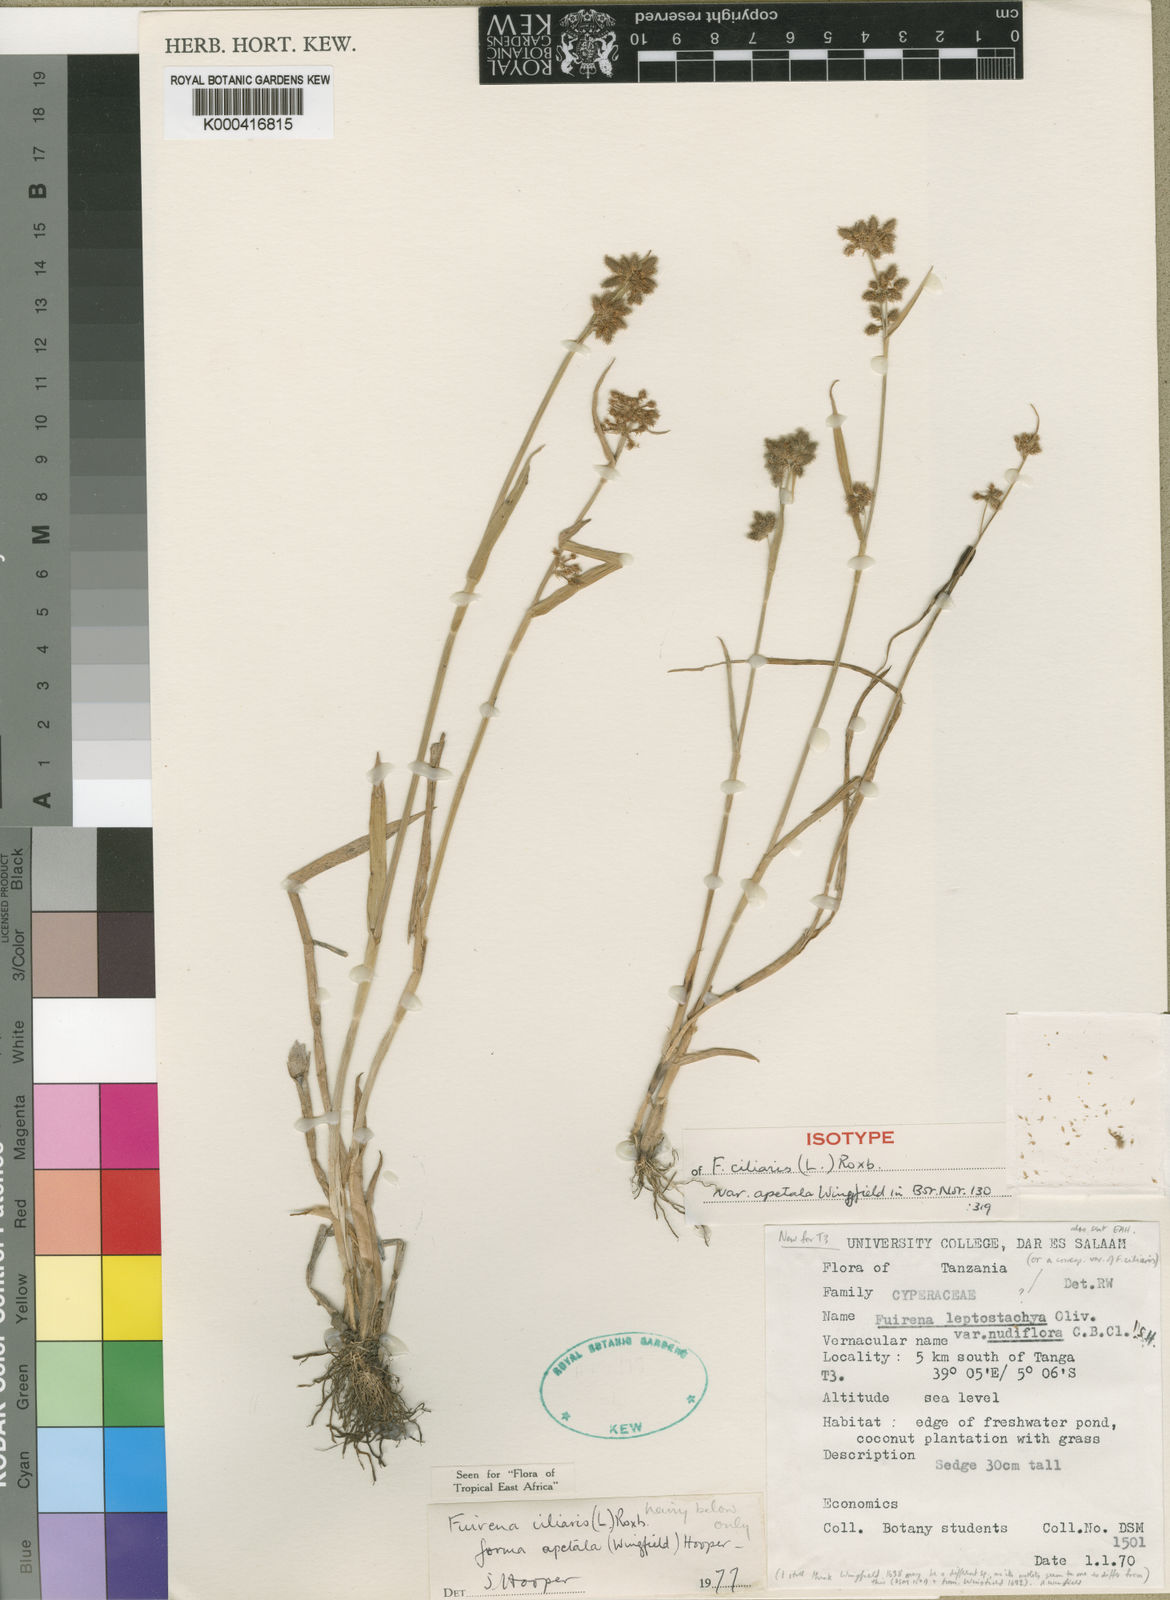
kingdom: Plantae
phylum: Tracheophyta
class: Liliopsida
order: Poales
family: Cyperaceae
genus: Fuirena
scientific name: Fuirena ciliaris
